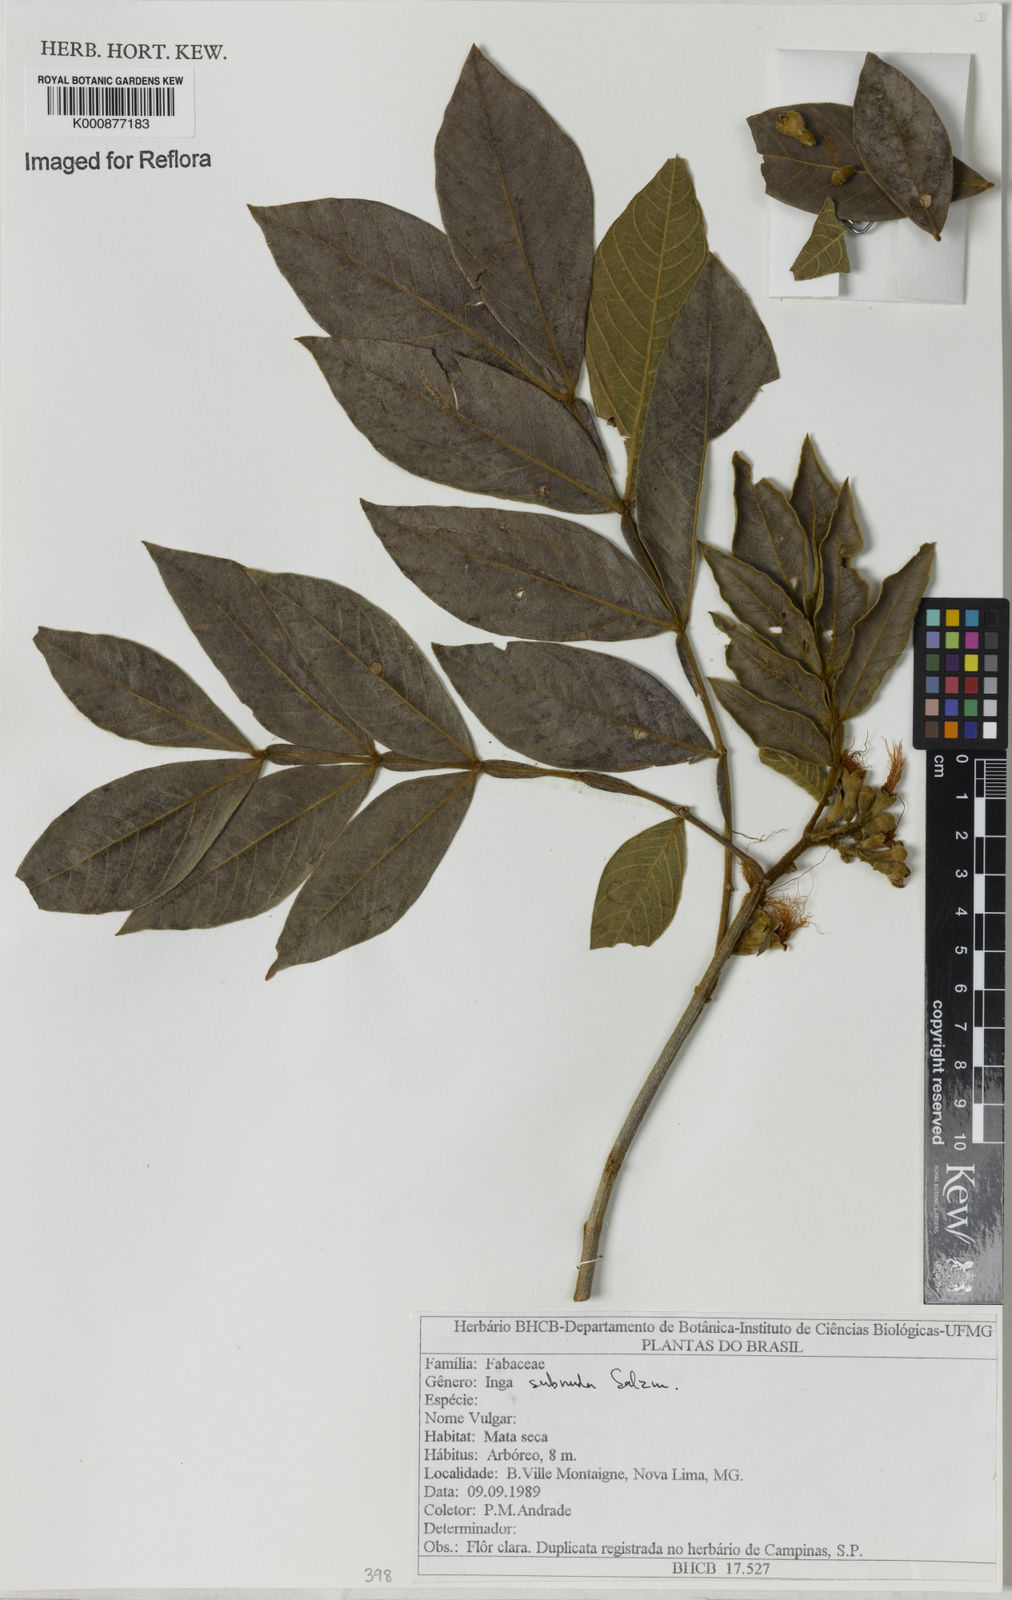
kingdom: Plantae
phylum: Tracheophyta
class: Magnoliopsida
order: Fabales
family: Fabaceae
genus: Inga
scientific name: Inga subnuda
